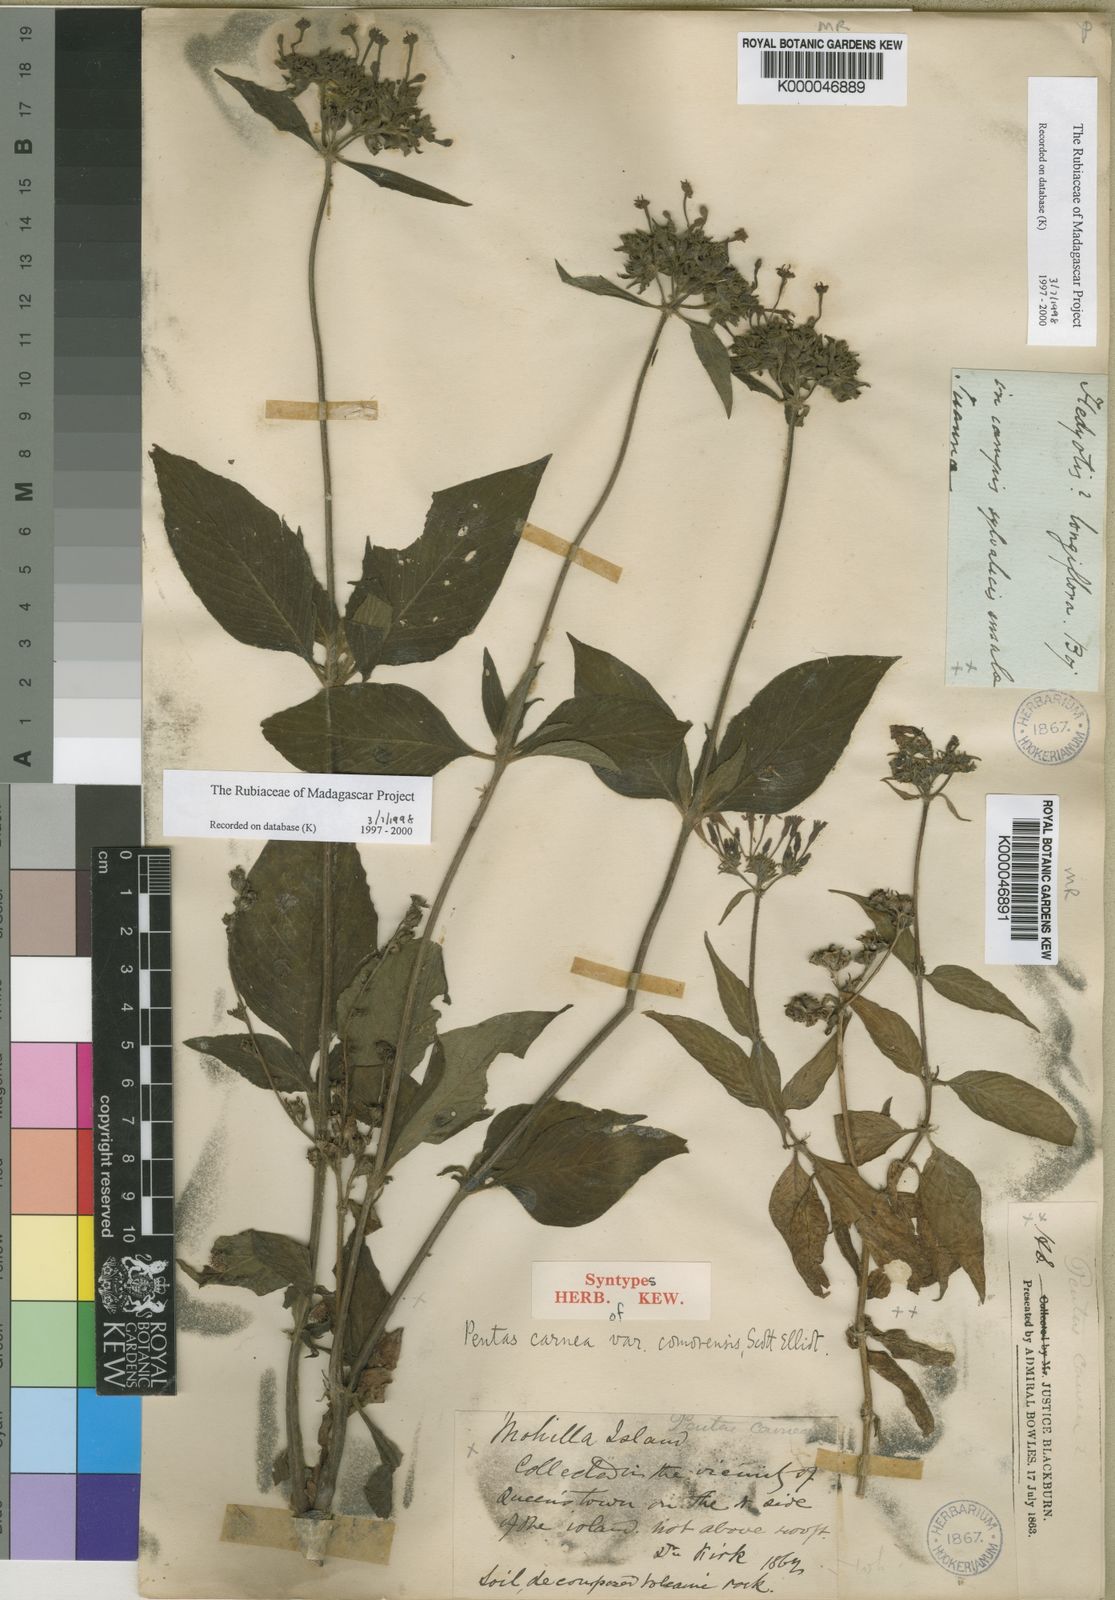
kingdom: Plantae
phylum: Tracheophyta
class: Magnoliopsida
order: Gentianales
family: Rubiaceae
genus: Pentas
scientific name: Pentas lanceolata
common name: Egyptian starcluster
